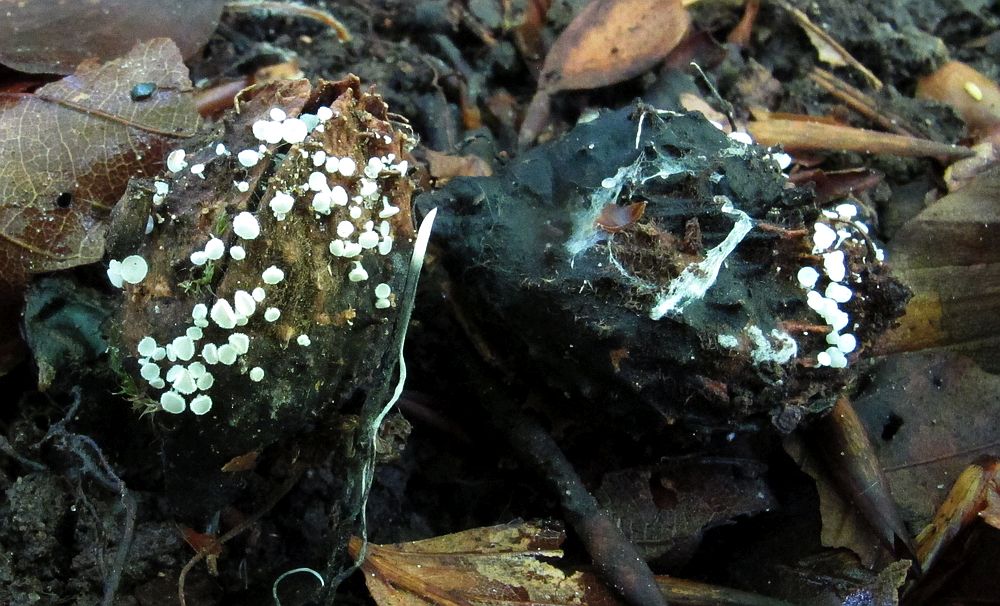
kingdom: Fungi
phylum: Ascomycota
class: Leotiomycetes
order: Helotiales
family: Lachnaceae
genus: Lachnum
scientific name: Lachnum virgineum
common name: jomfru-frynseskive
